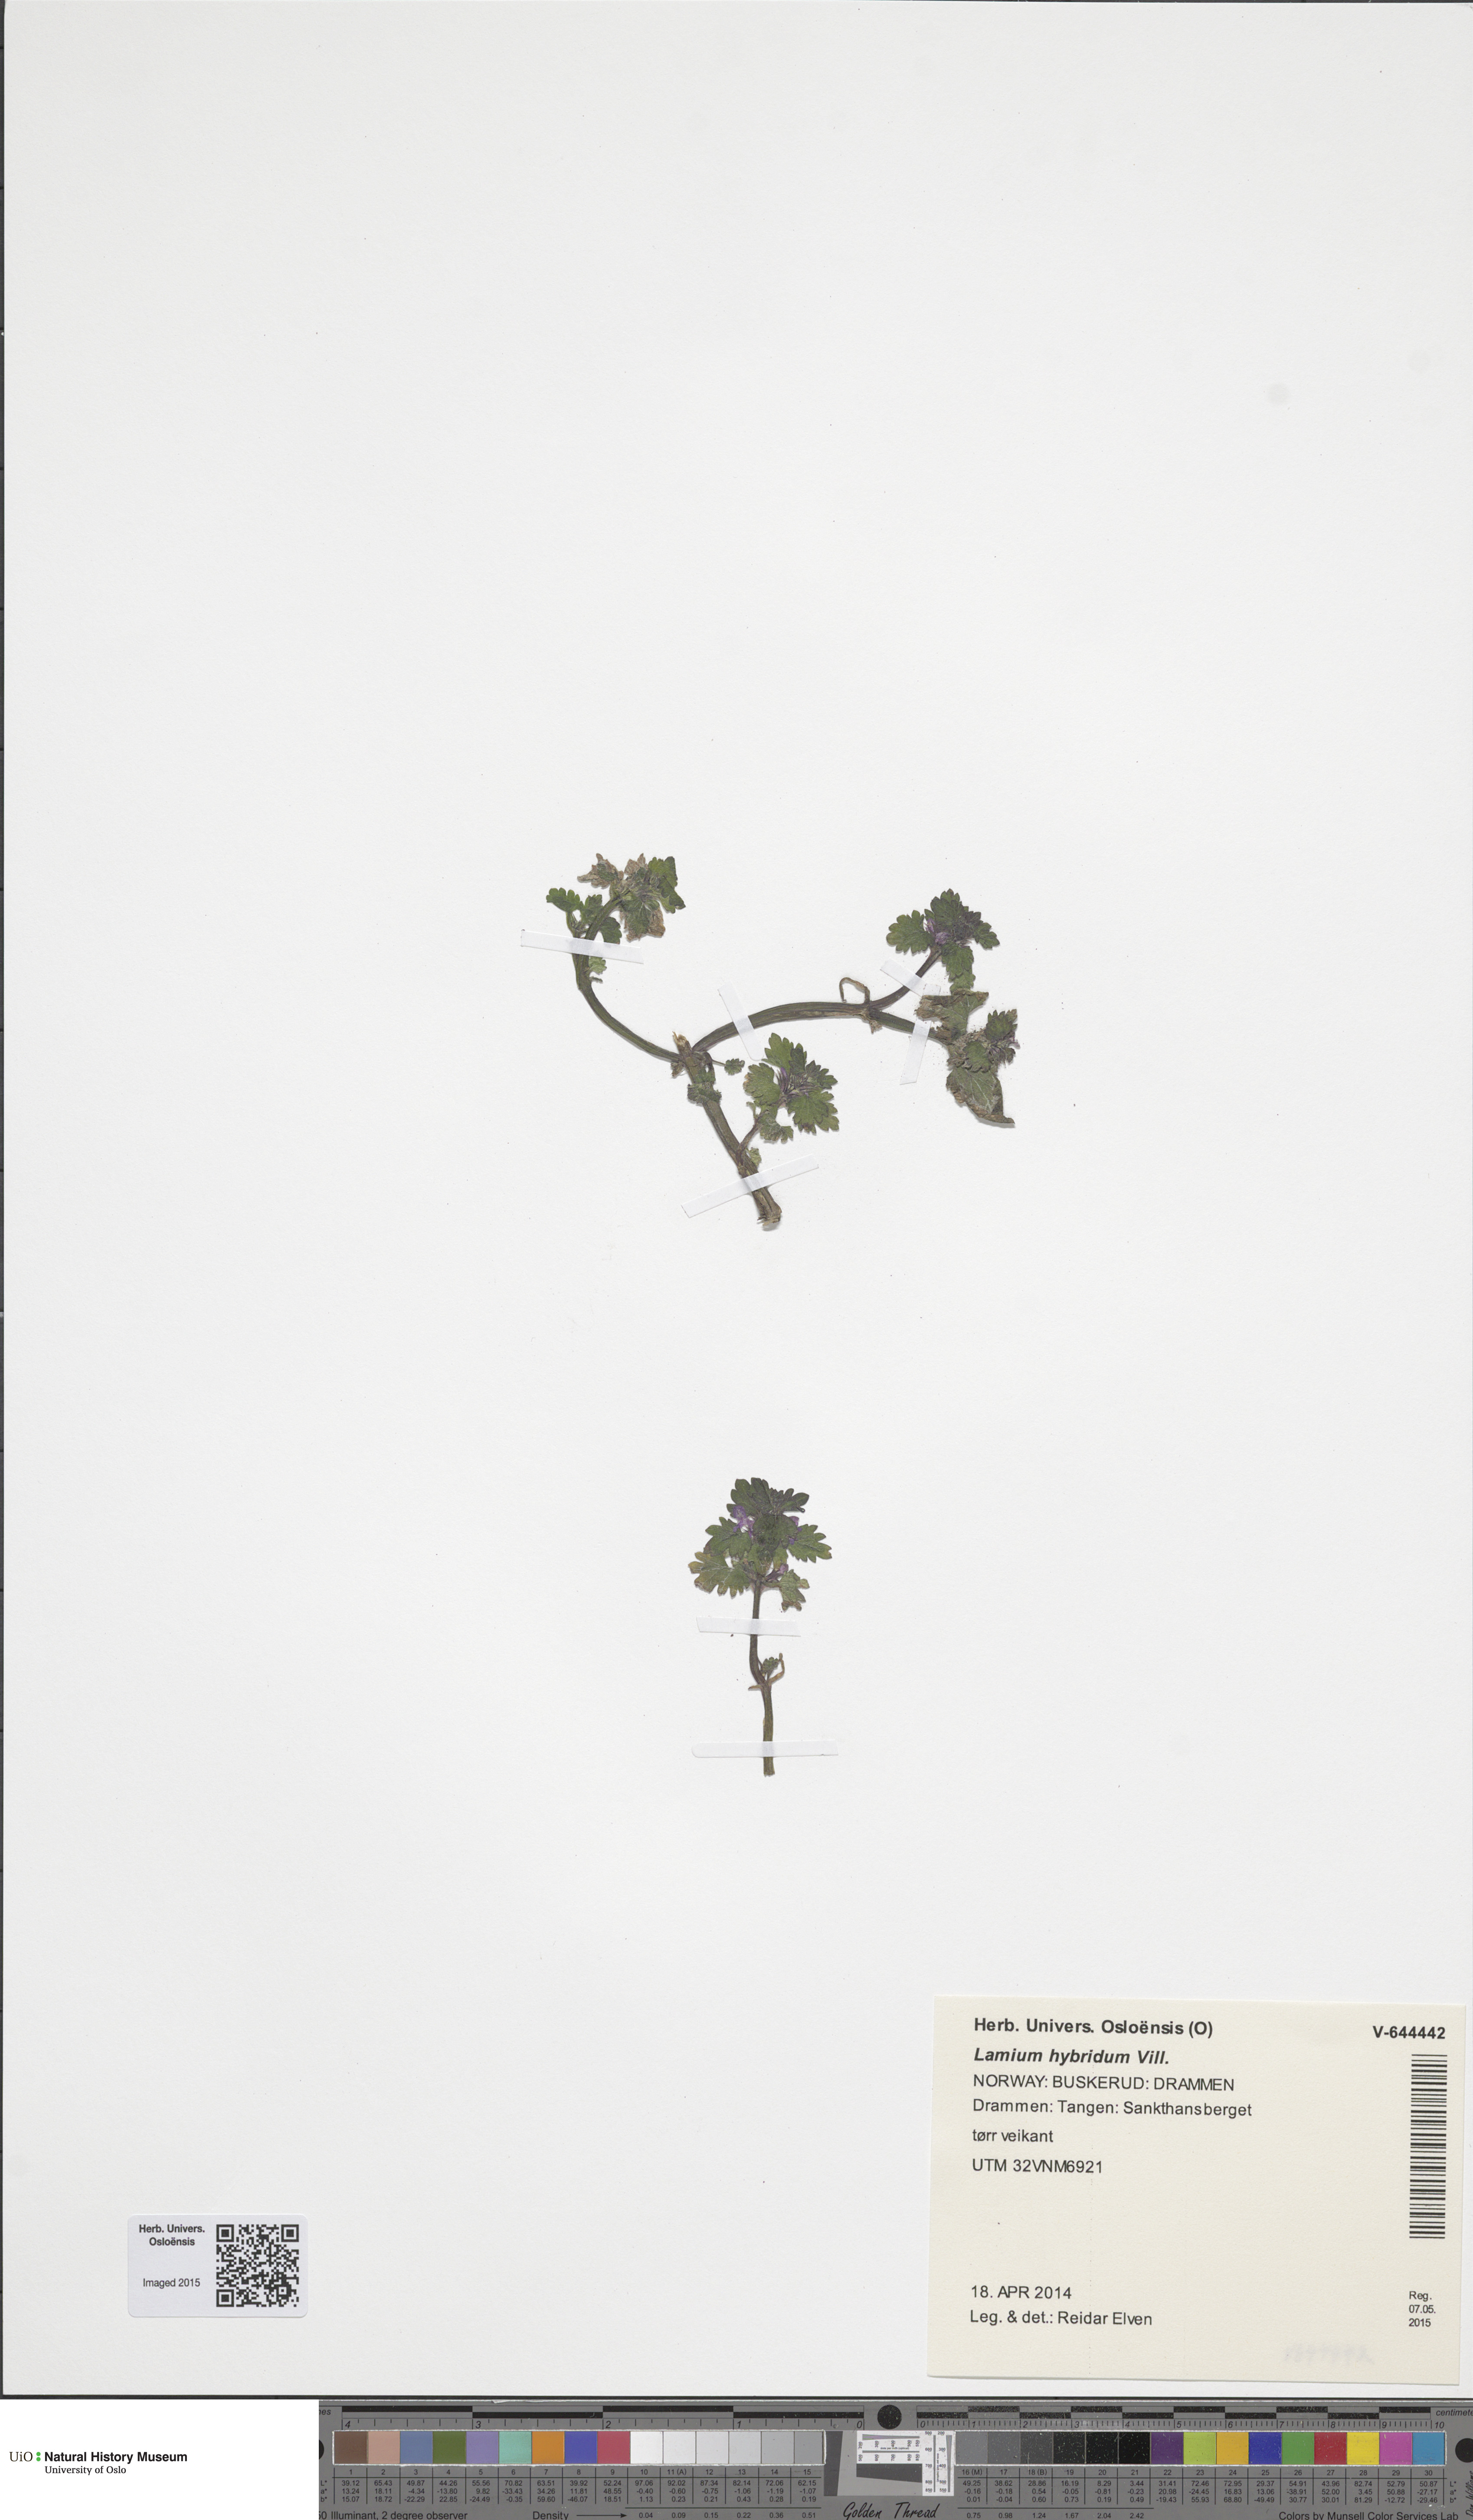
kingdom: Plantae
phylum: Tracheophyta
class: Magnoliopsida
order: Lamiales
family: Lamiaceae
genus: Lamium
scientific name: Lamium hybridum
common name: Cut-leaved dead-nettle
